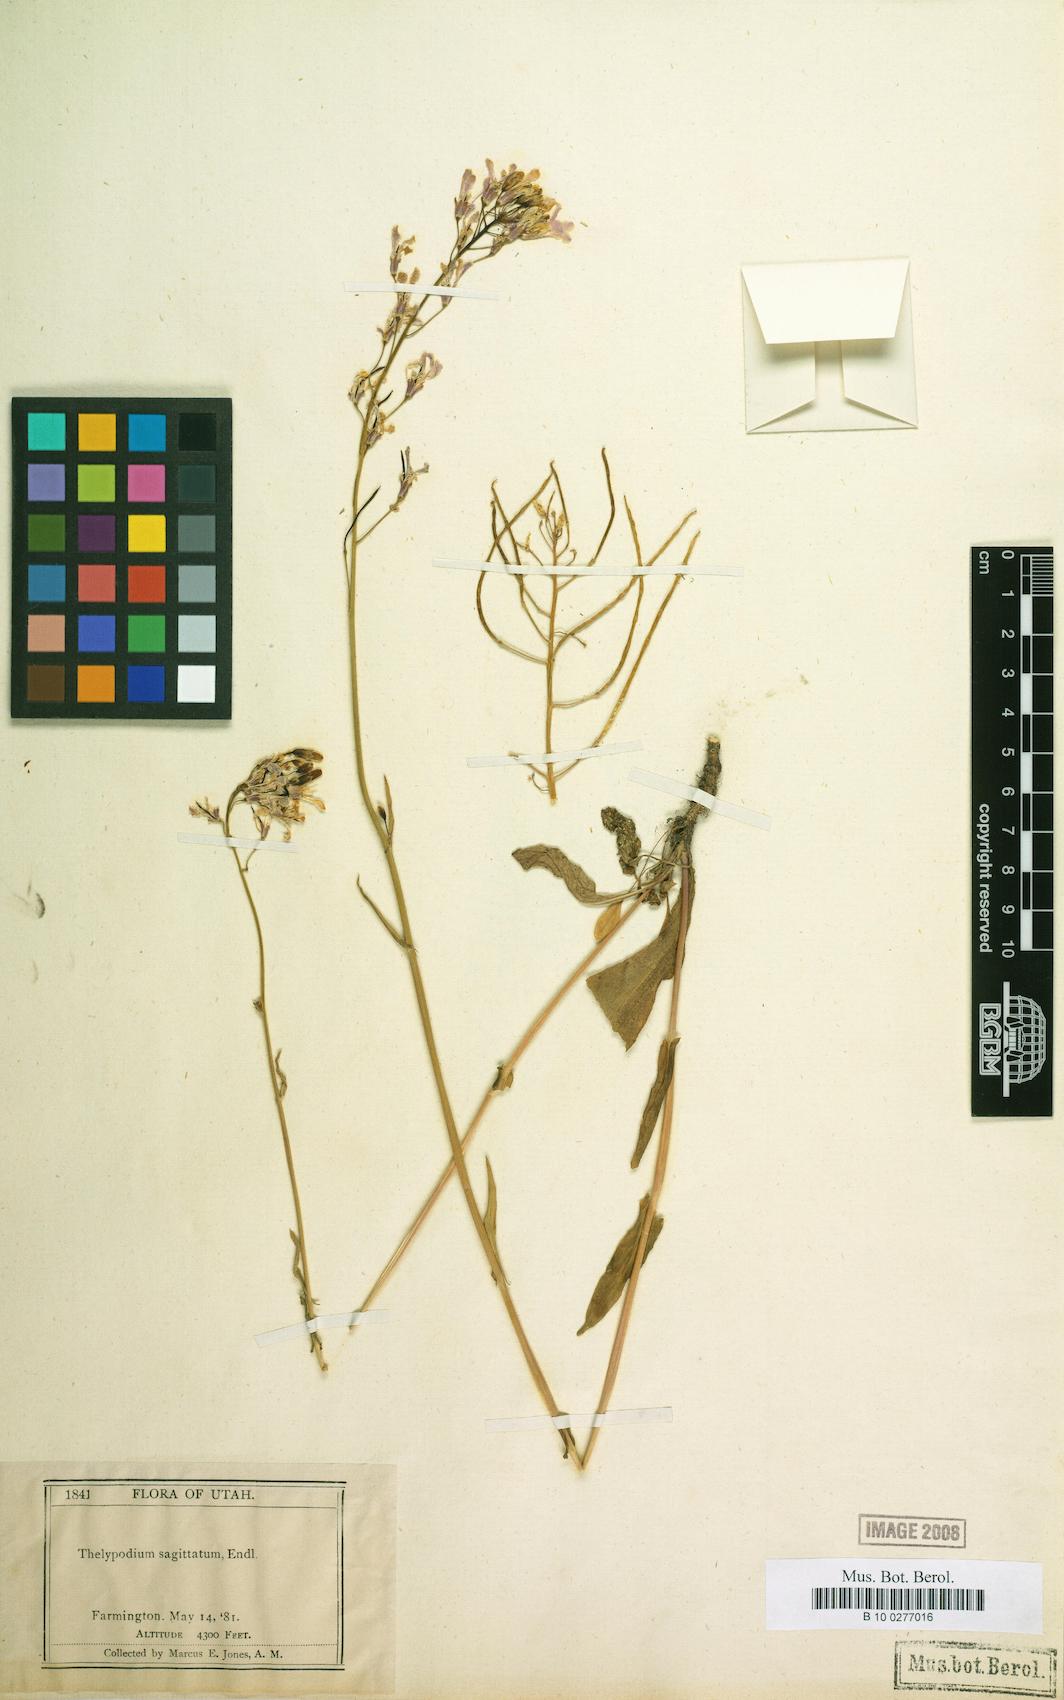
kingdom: Plantae
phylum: Tracheophyta
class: Magnoliopsida
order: Brassicales
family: Brassicaceae
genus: Thelypodium
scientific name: Thelypodium sagittatum
